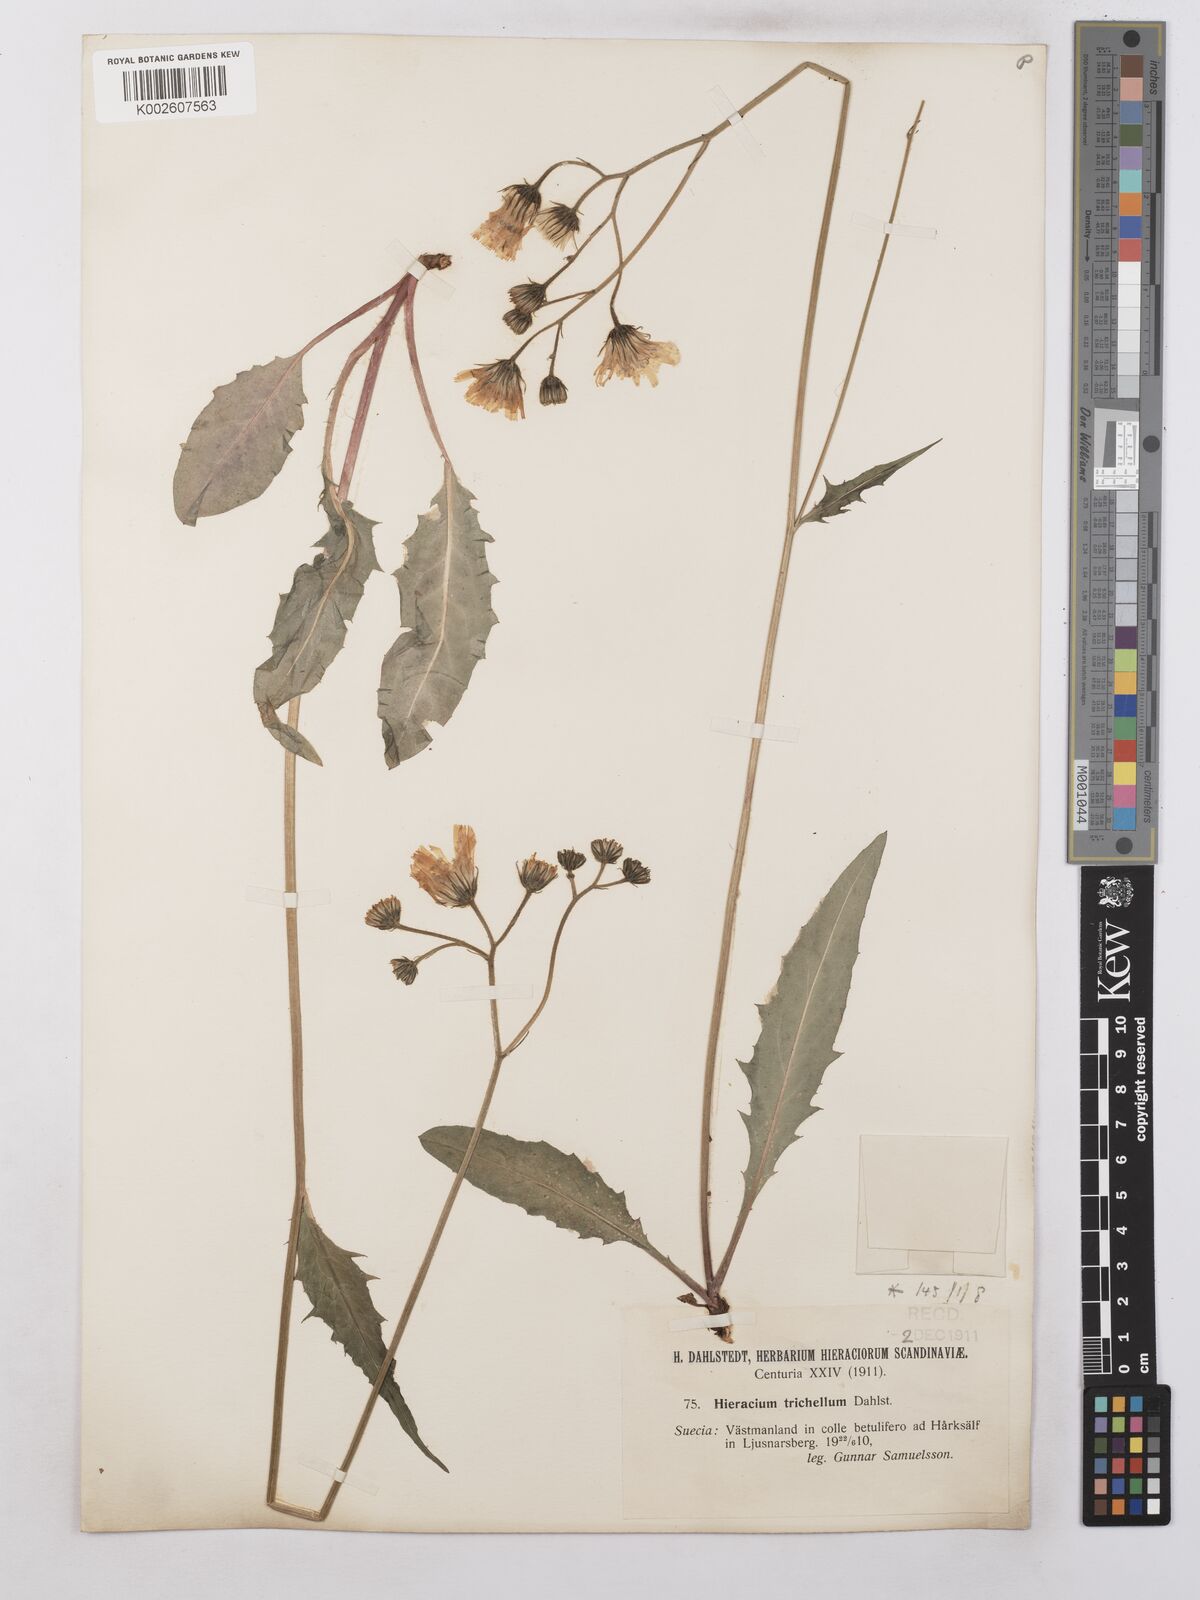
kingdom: Plantae
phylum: Tracheophyta
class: Magnoliopsida
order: Asterales
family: Asteraceae
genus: Hieracium
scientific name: Hieracium subramosum
